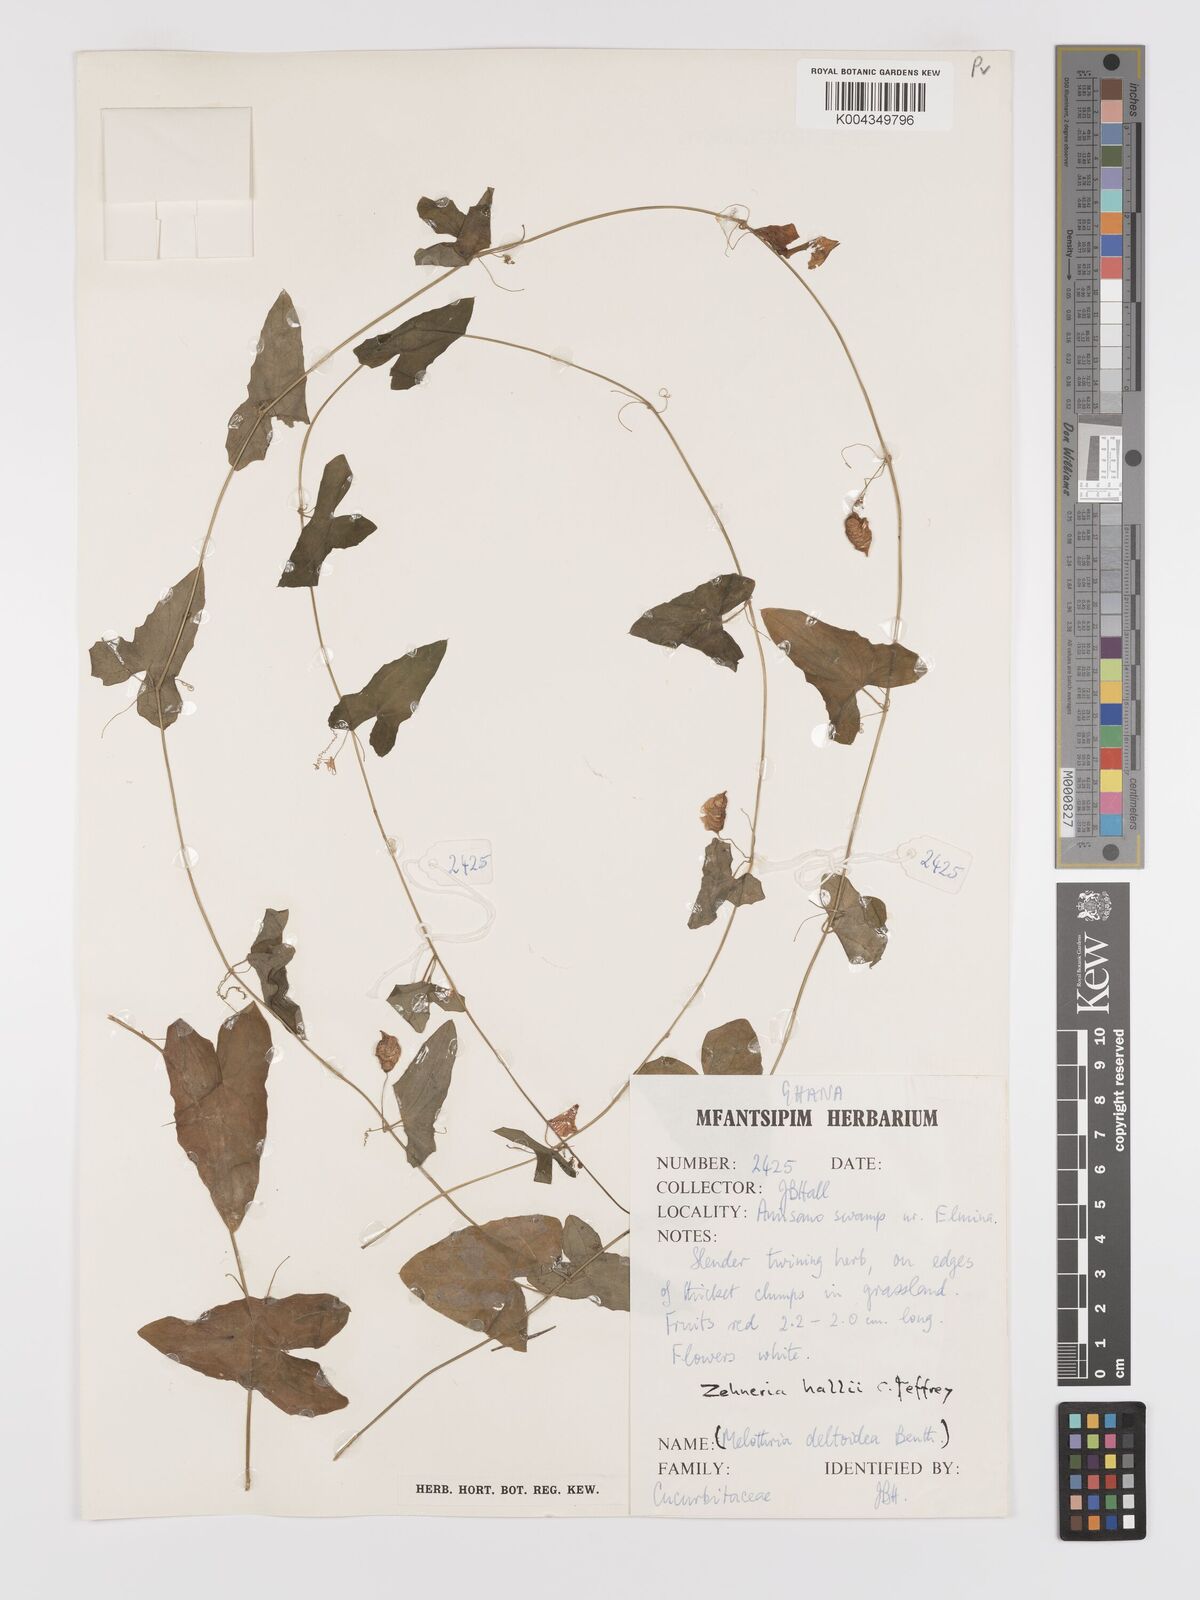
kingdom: Plantae
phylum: Tracheophyta
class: Magnoliopsida
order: Cucurbitales
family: Cucurbitaceae
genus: Zehneria
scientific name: Zehneria hallii
